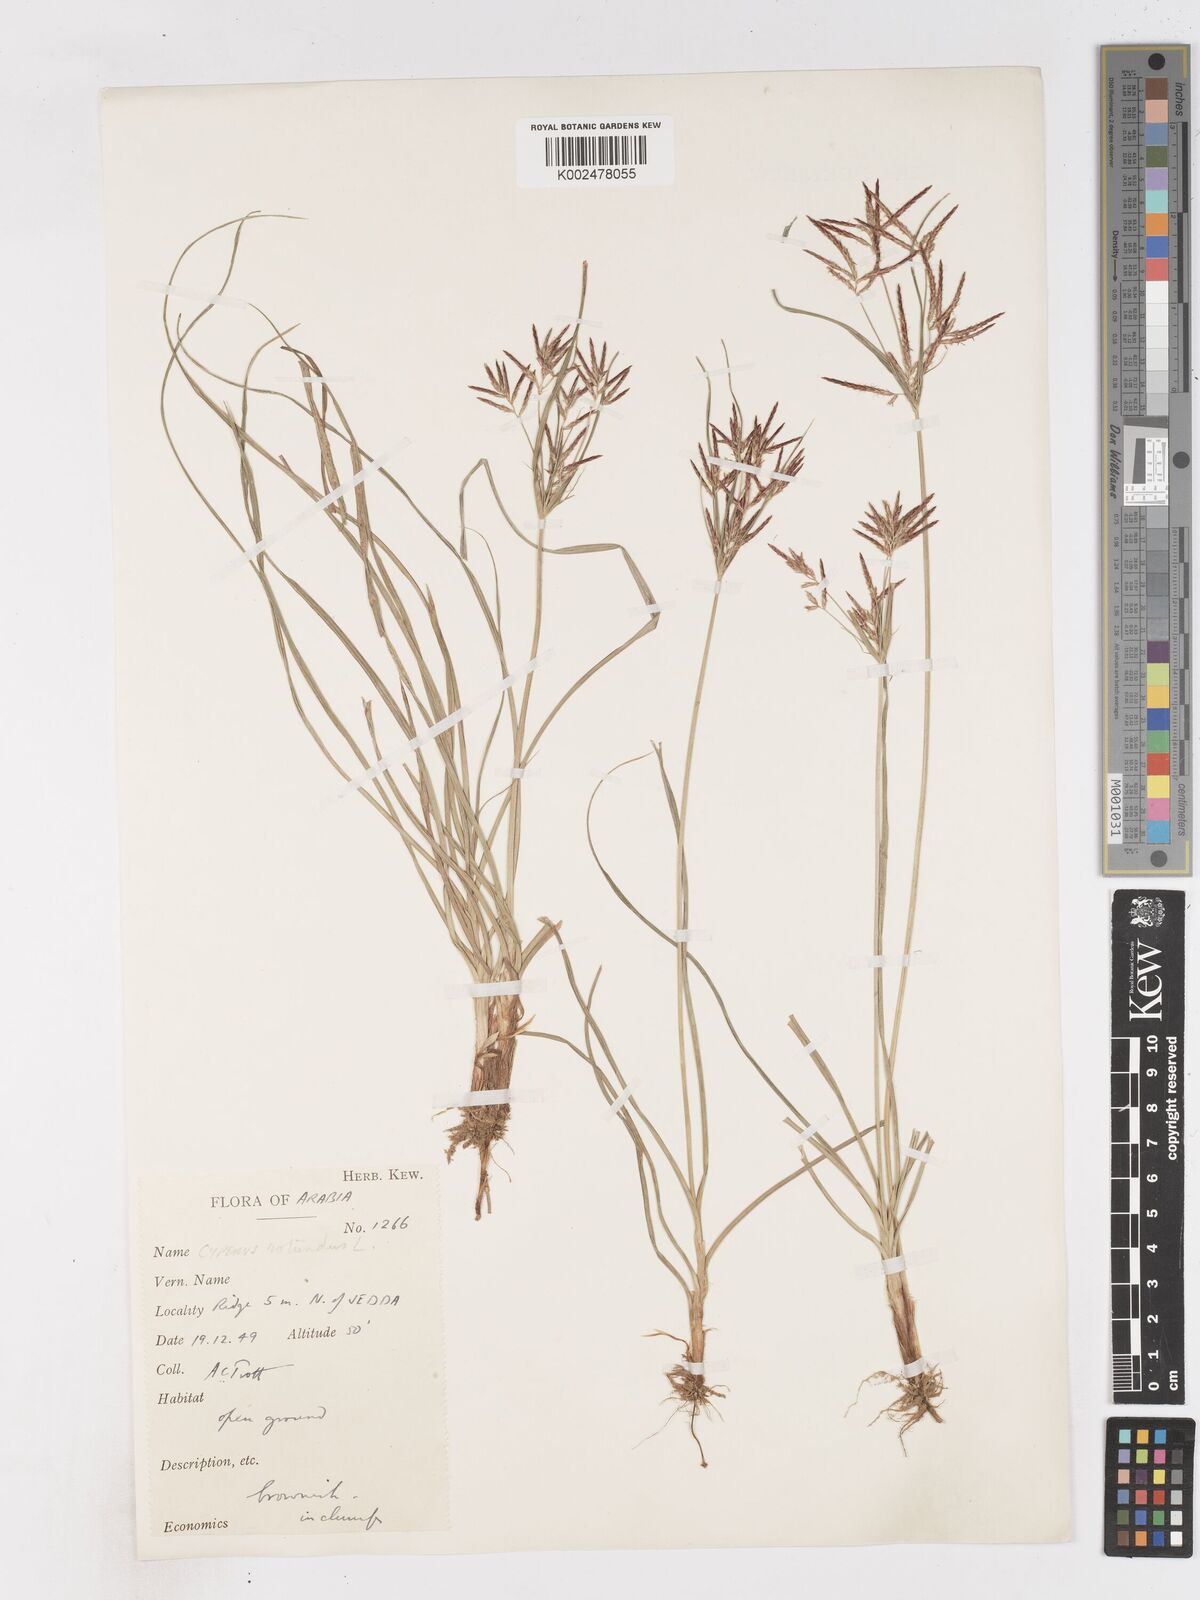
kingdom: Plantae
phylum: Tracheophyta
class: Liliopsida
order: Poales
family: Cyperaceae
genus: Cyperus
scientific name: Cyperus rotundus
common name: Nutgrass
